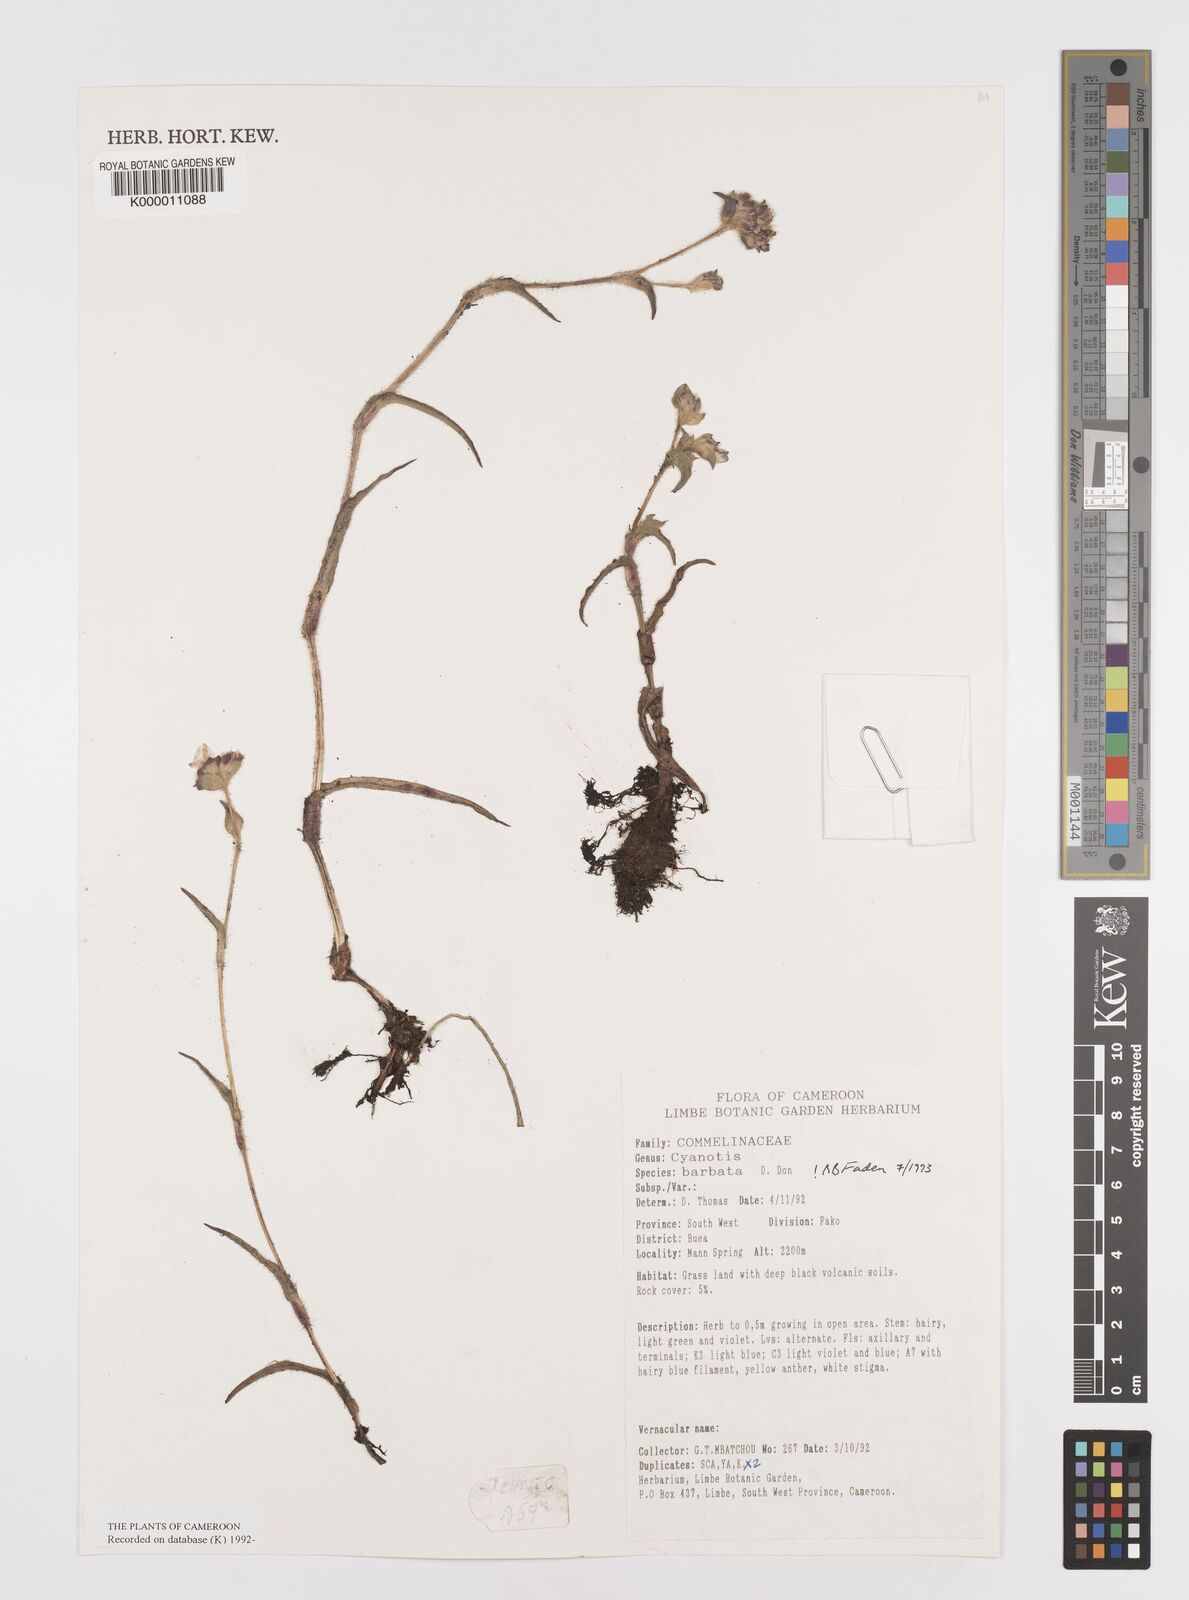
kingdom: Plantae
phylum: Tracheophyta
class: Liliopsida
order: Commelinales
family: Commelinaceae
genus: Cyanotis
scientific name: Cyanotis vaga
